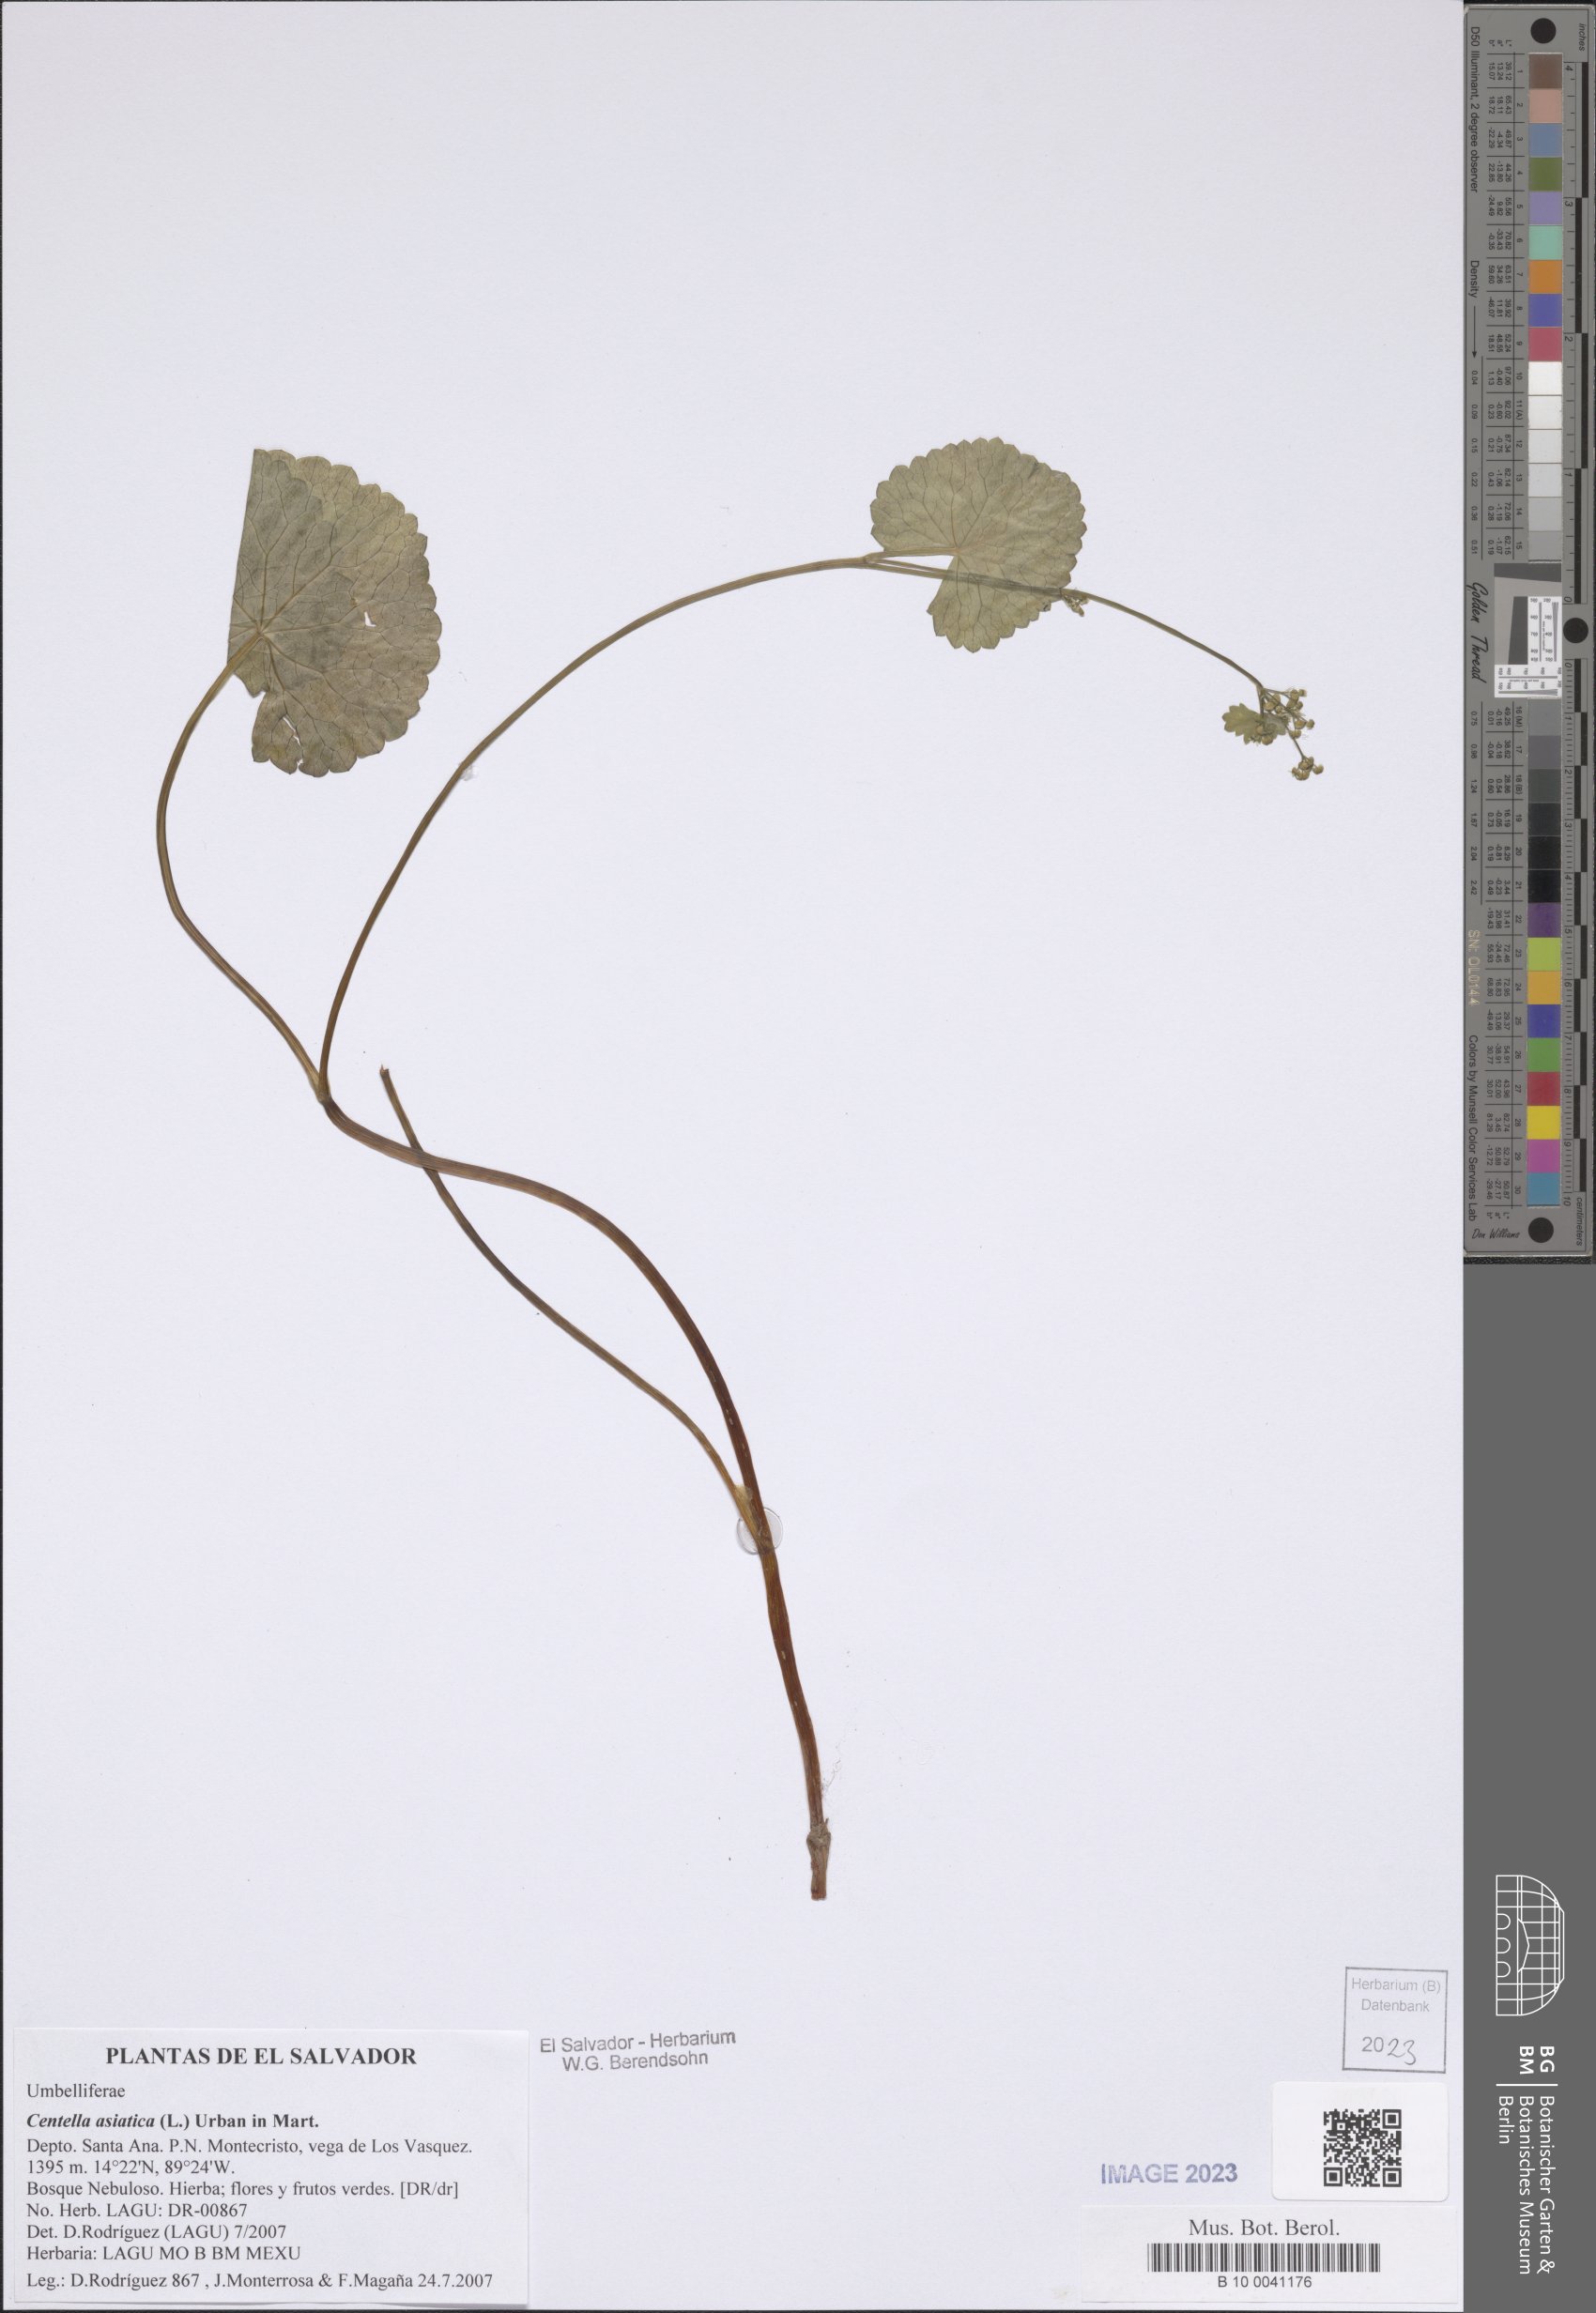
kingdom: Plantae
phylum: Tracheophyta
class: Magnoliopsida
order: Apiales
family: Apiaceae
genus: Centella
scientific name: Centella asiatica
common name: Spadeleaf
